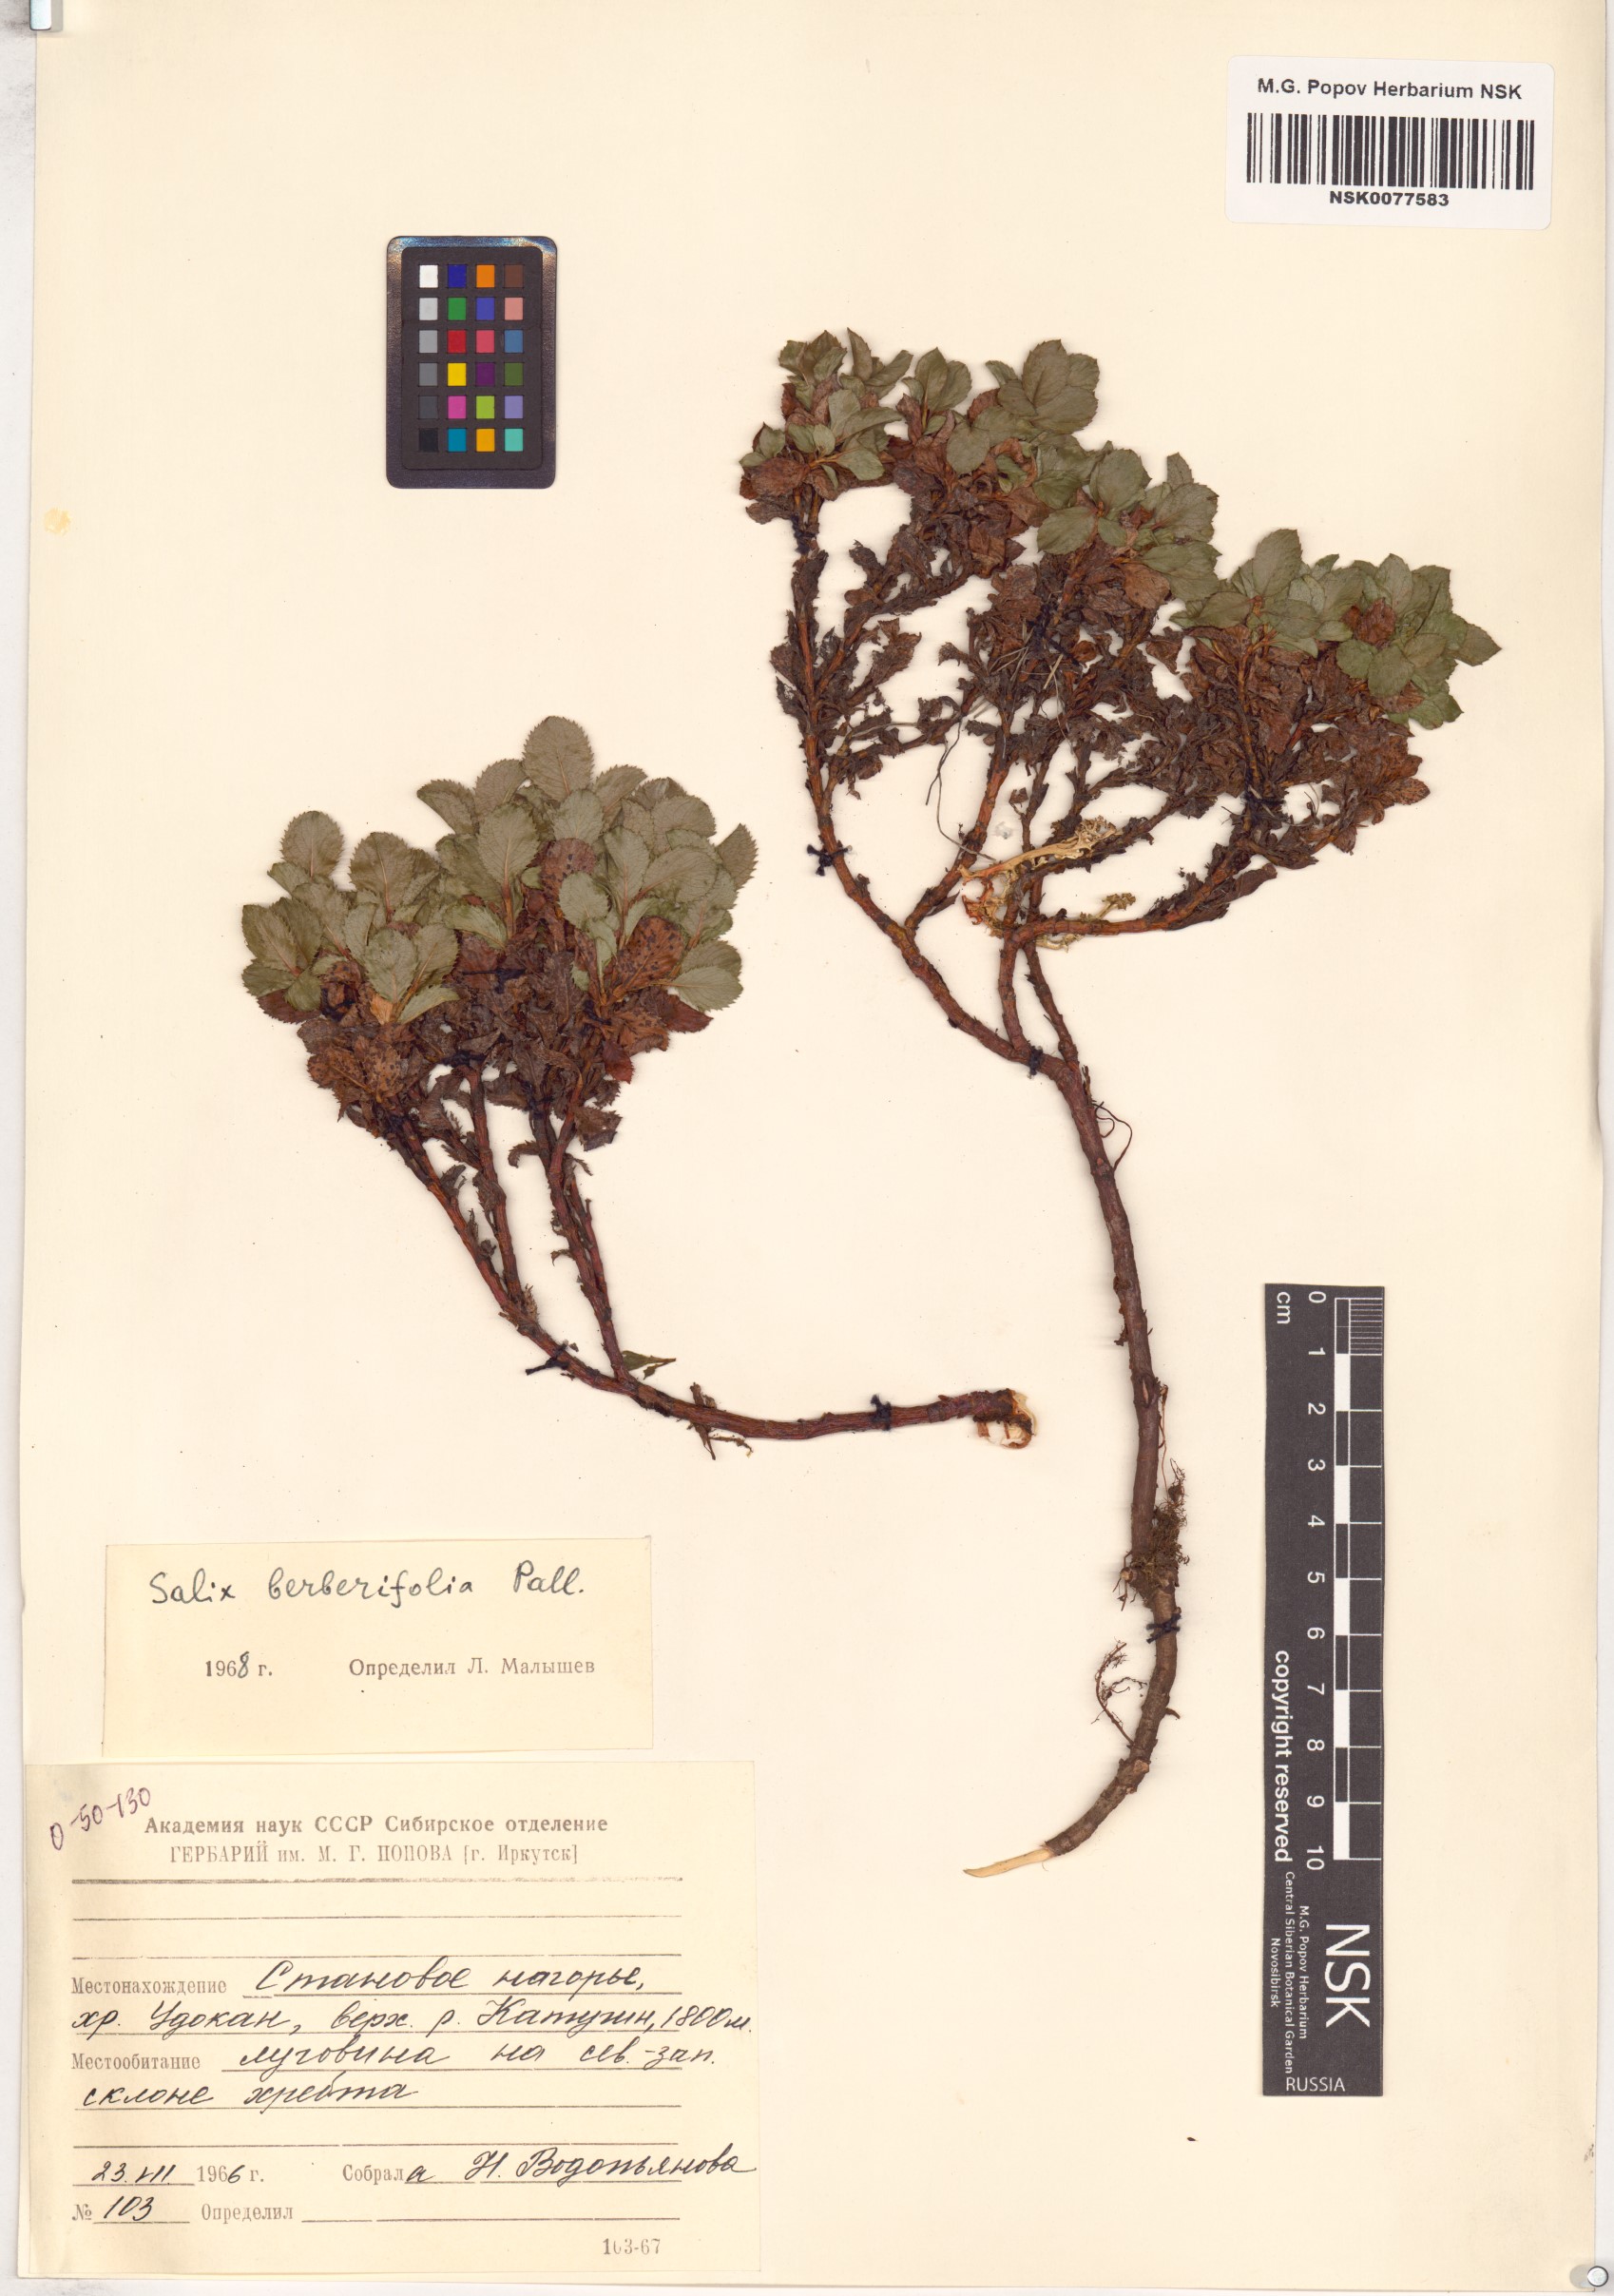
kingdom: Plantae
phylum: Tracheophyta
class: Magnoliopsida
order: Malpighiales
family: Salicaceae
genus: Salix
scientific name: Salix berberifolia
